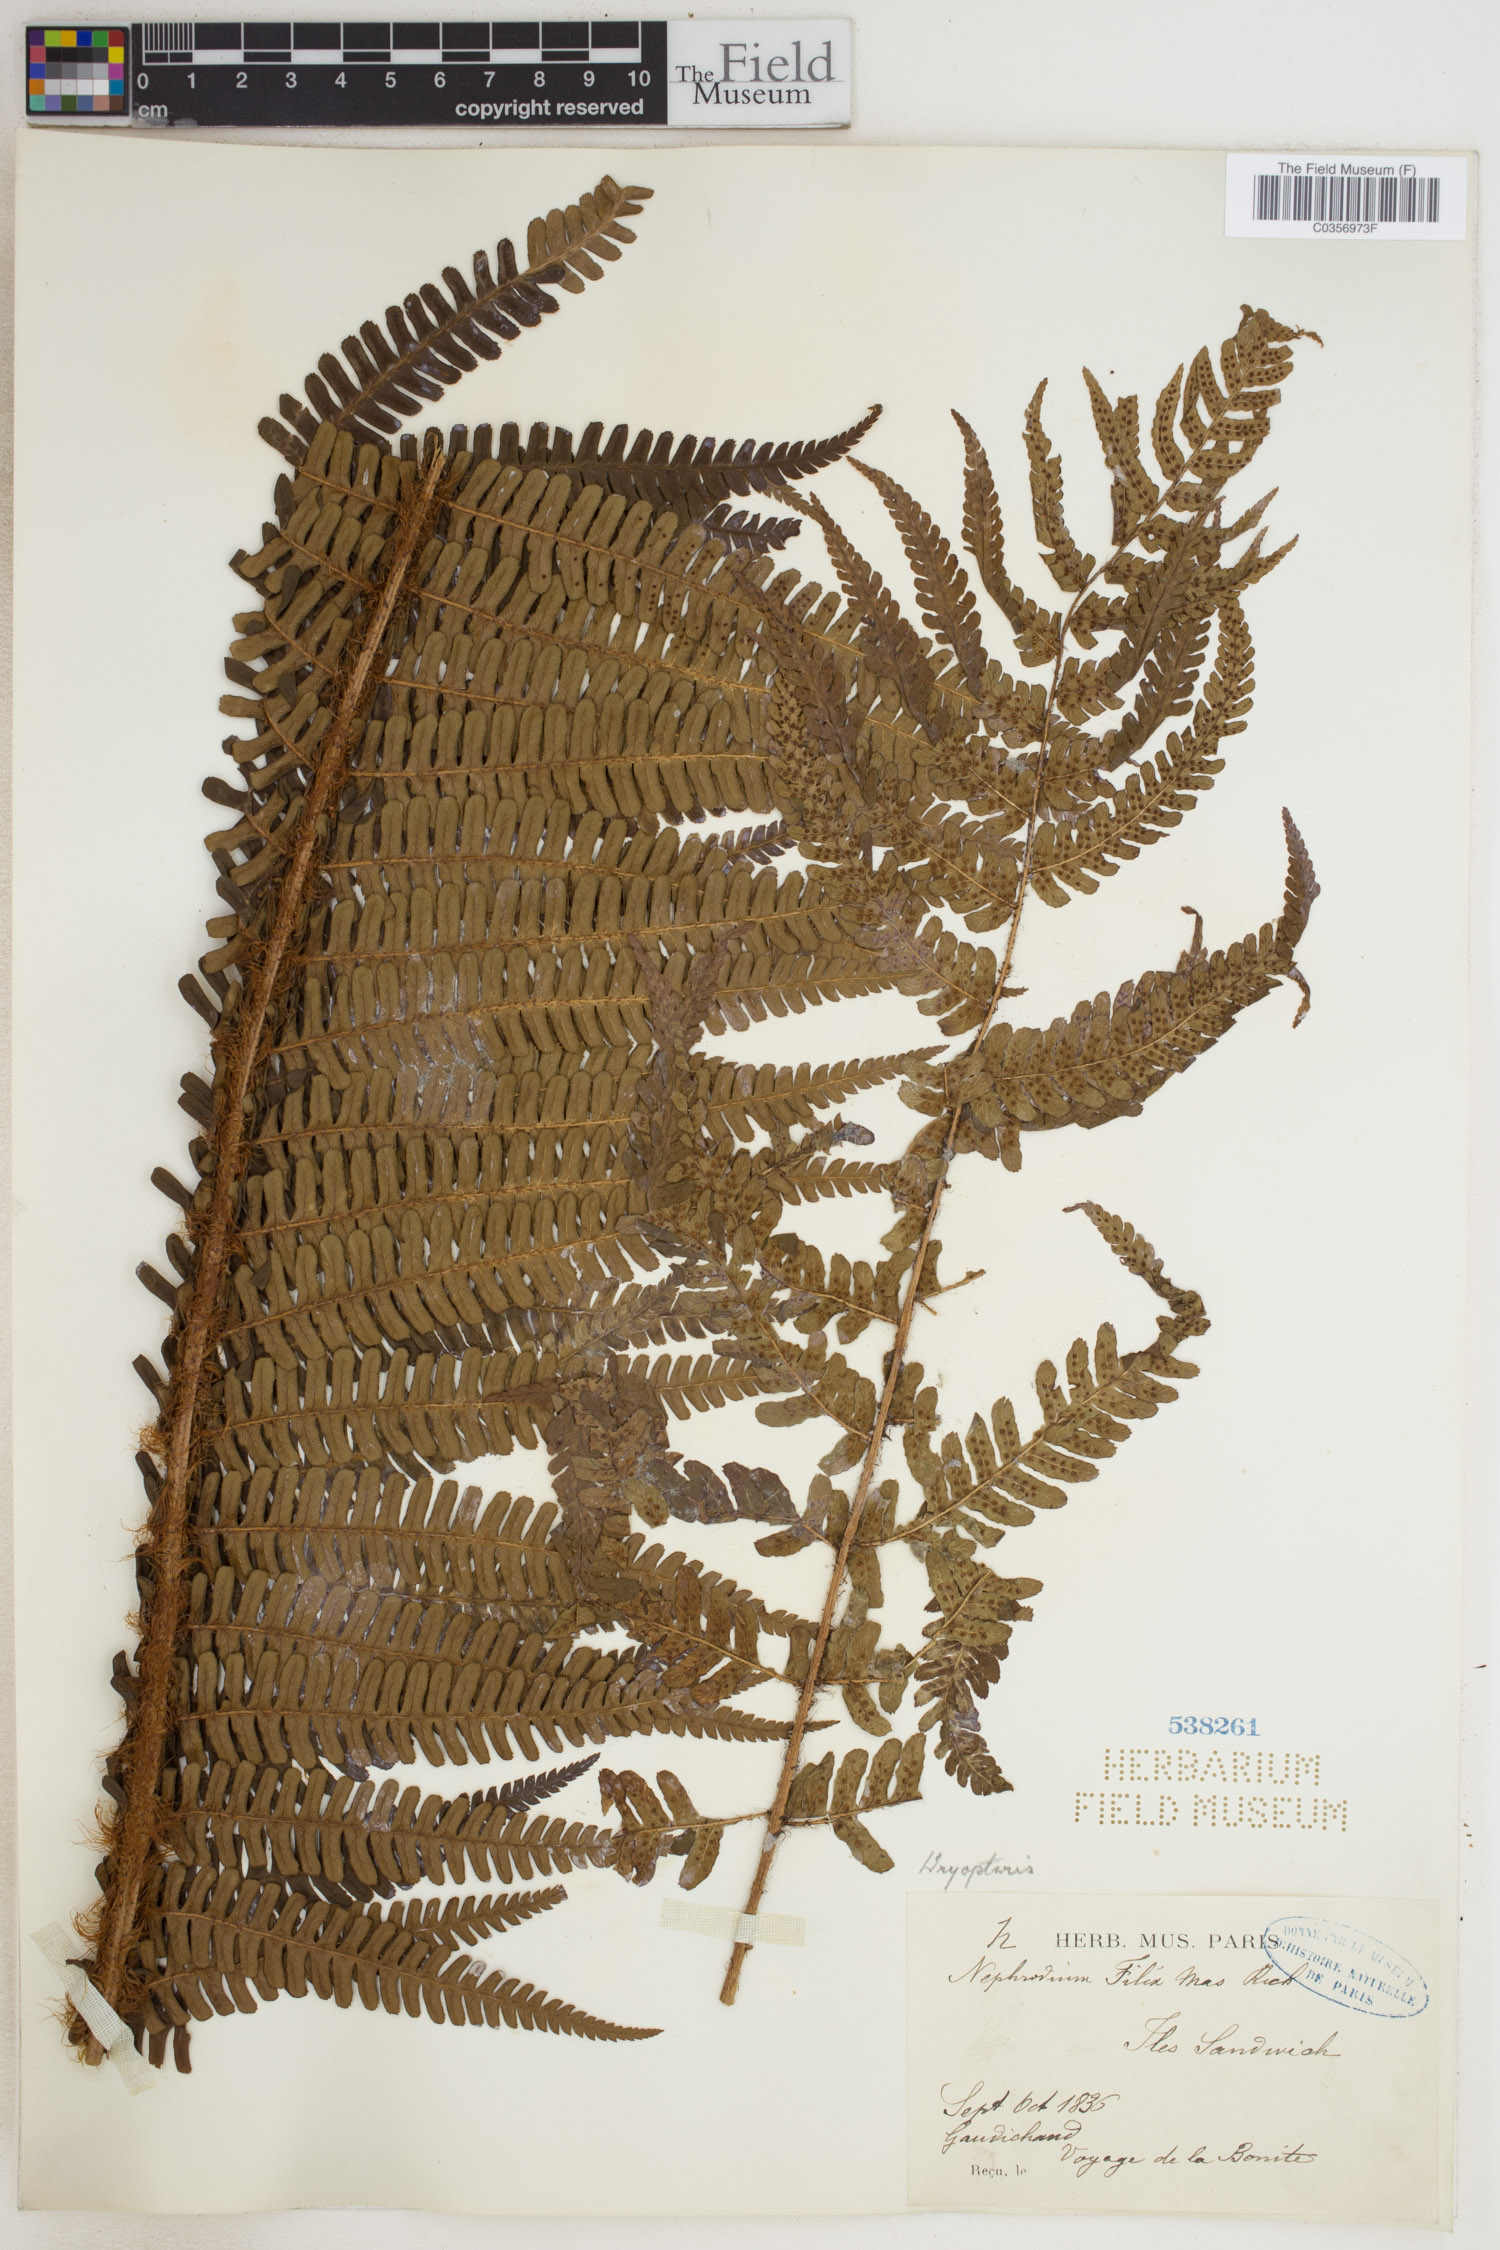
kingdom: Plantae
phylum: Tracheophyta
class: Polypodiopsida
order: Polypodiales
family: Dryopteridaceae
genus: Dryopteris
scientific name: Dryopteris filix-mas
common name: Male fern
